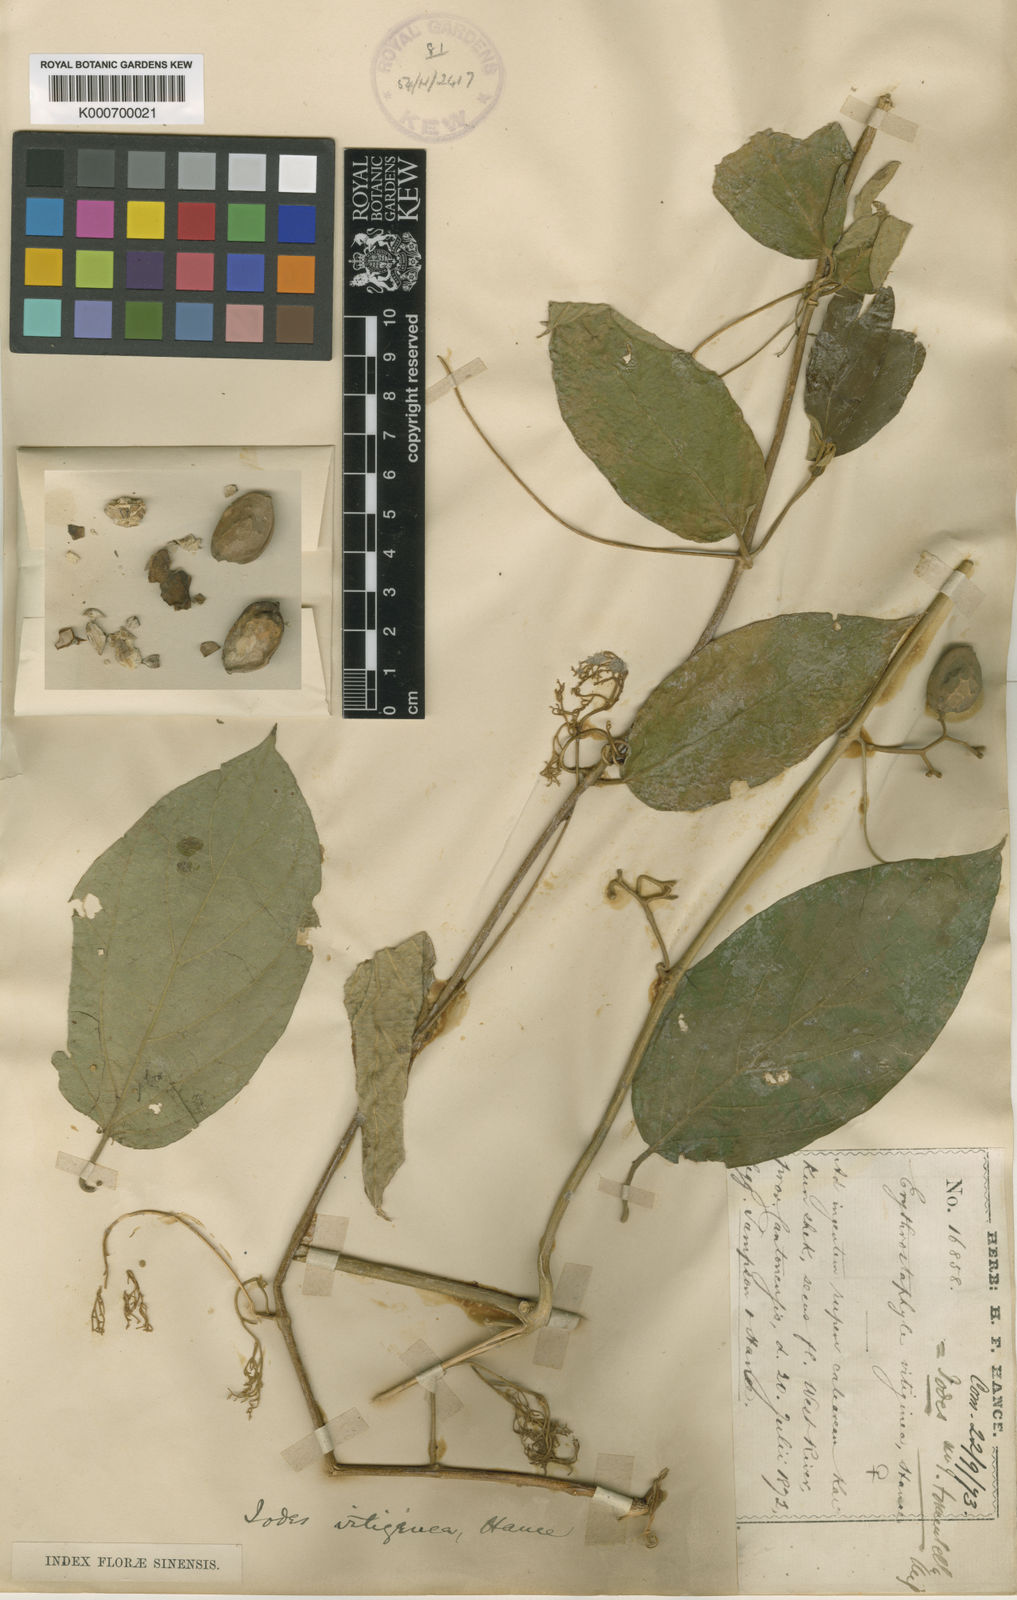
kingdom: Plantae
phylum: Tracheophyta
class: Magnoliopsida
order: Icacinales
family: Icacinaceae
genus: Iodes
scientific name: Iodes vitiginea
